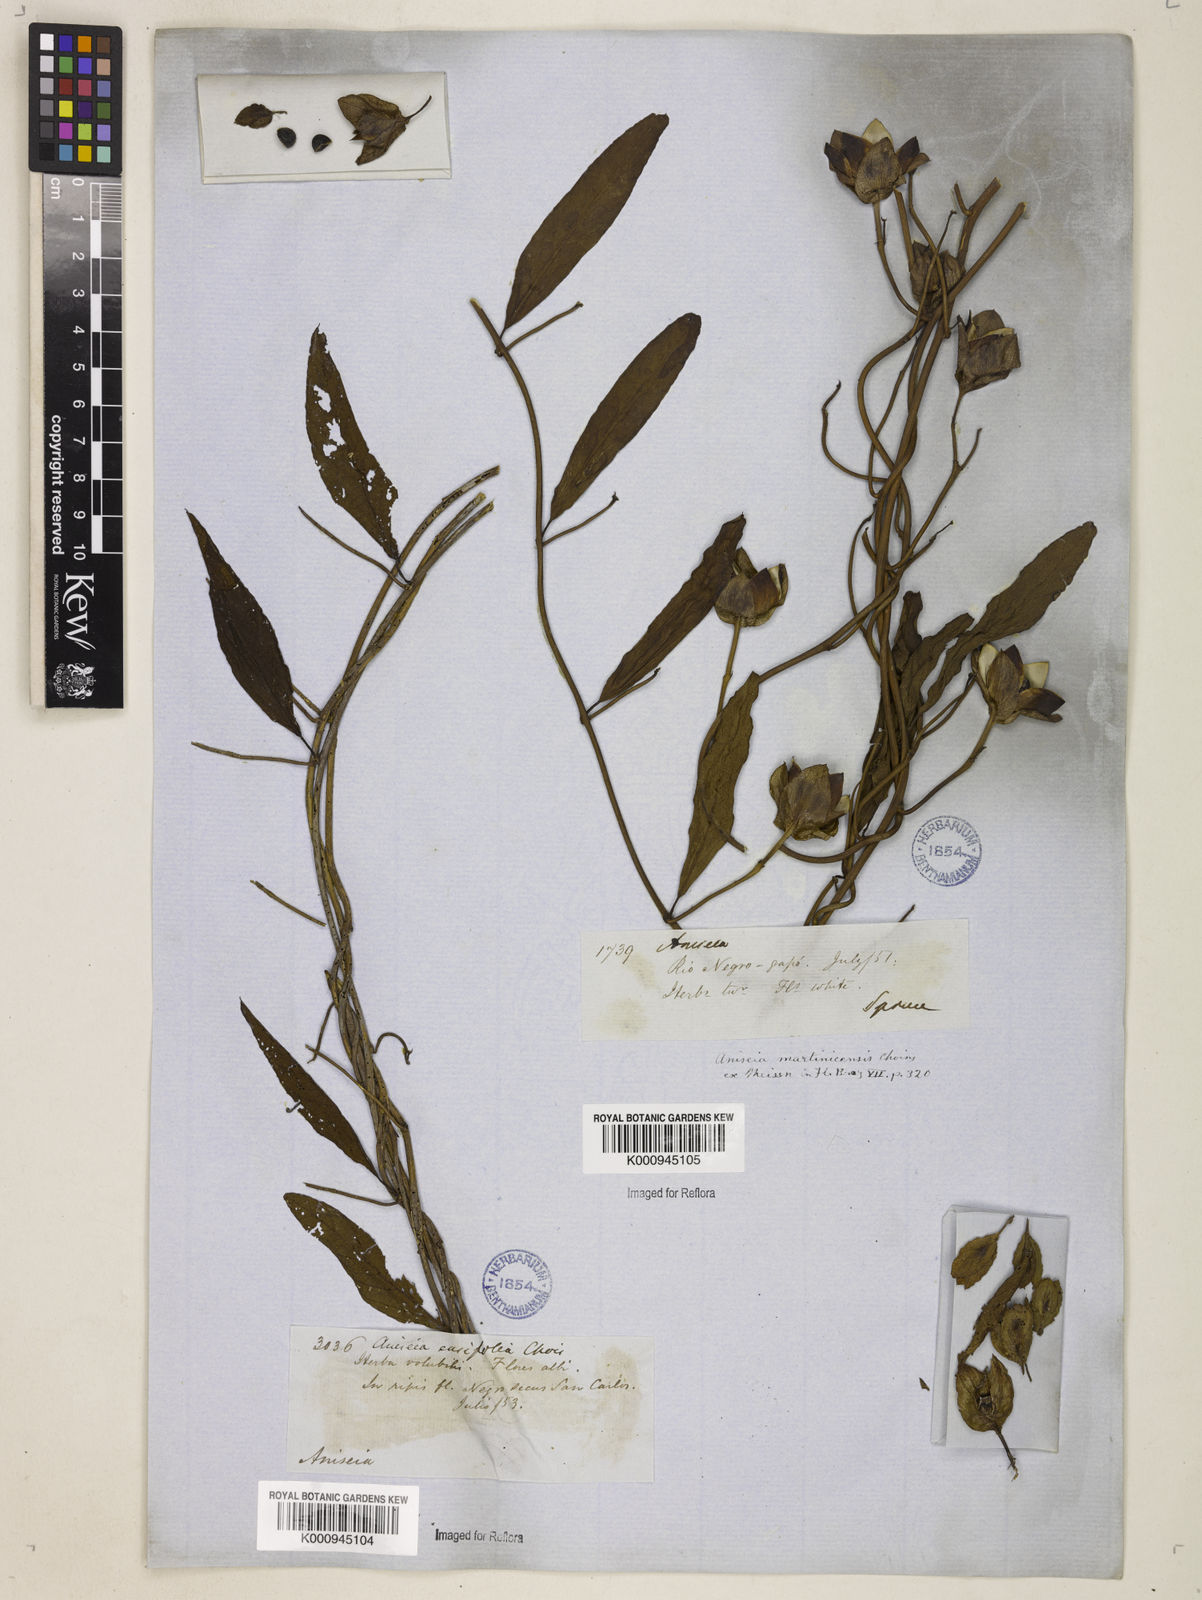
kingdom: Plantae
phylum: Tracheophyta
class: Magnoliopsida
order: Solanales
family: Convolvulaceae
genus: Aniseia
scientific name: Aniseia martinicensis
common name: Kulayadambu
